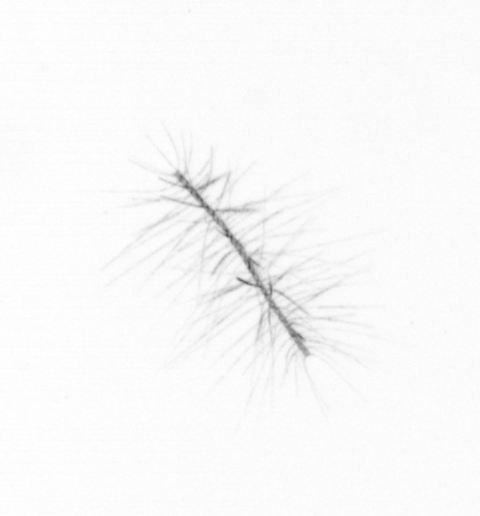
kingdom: Chromista
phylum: Ochrophyta
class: Bacillariophyceae
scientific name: Bacillariophyceae
